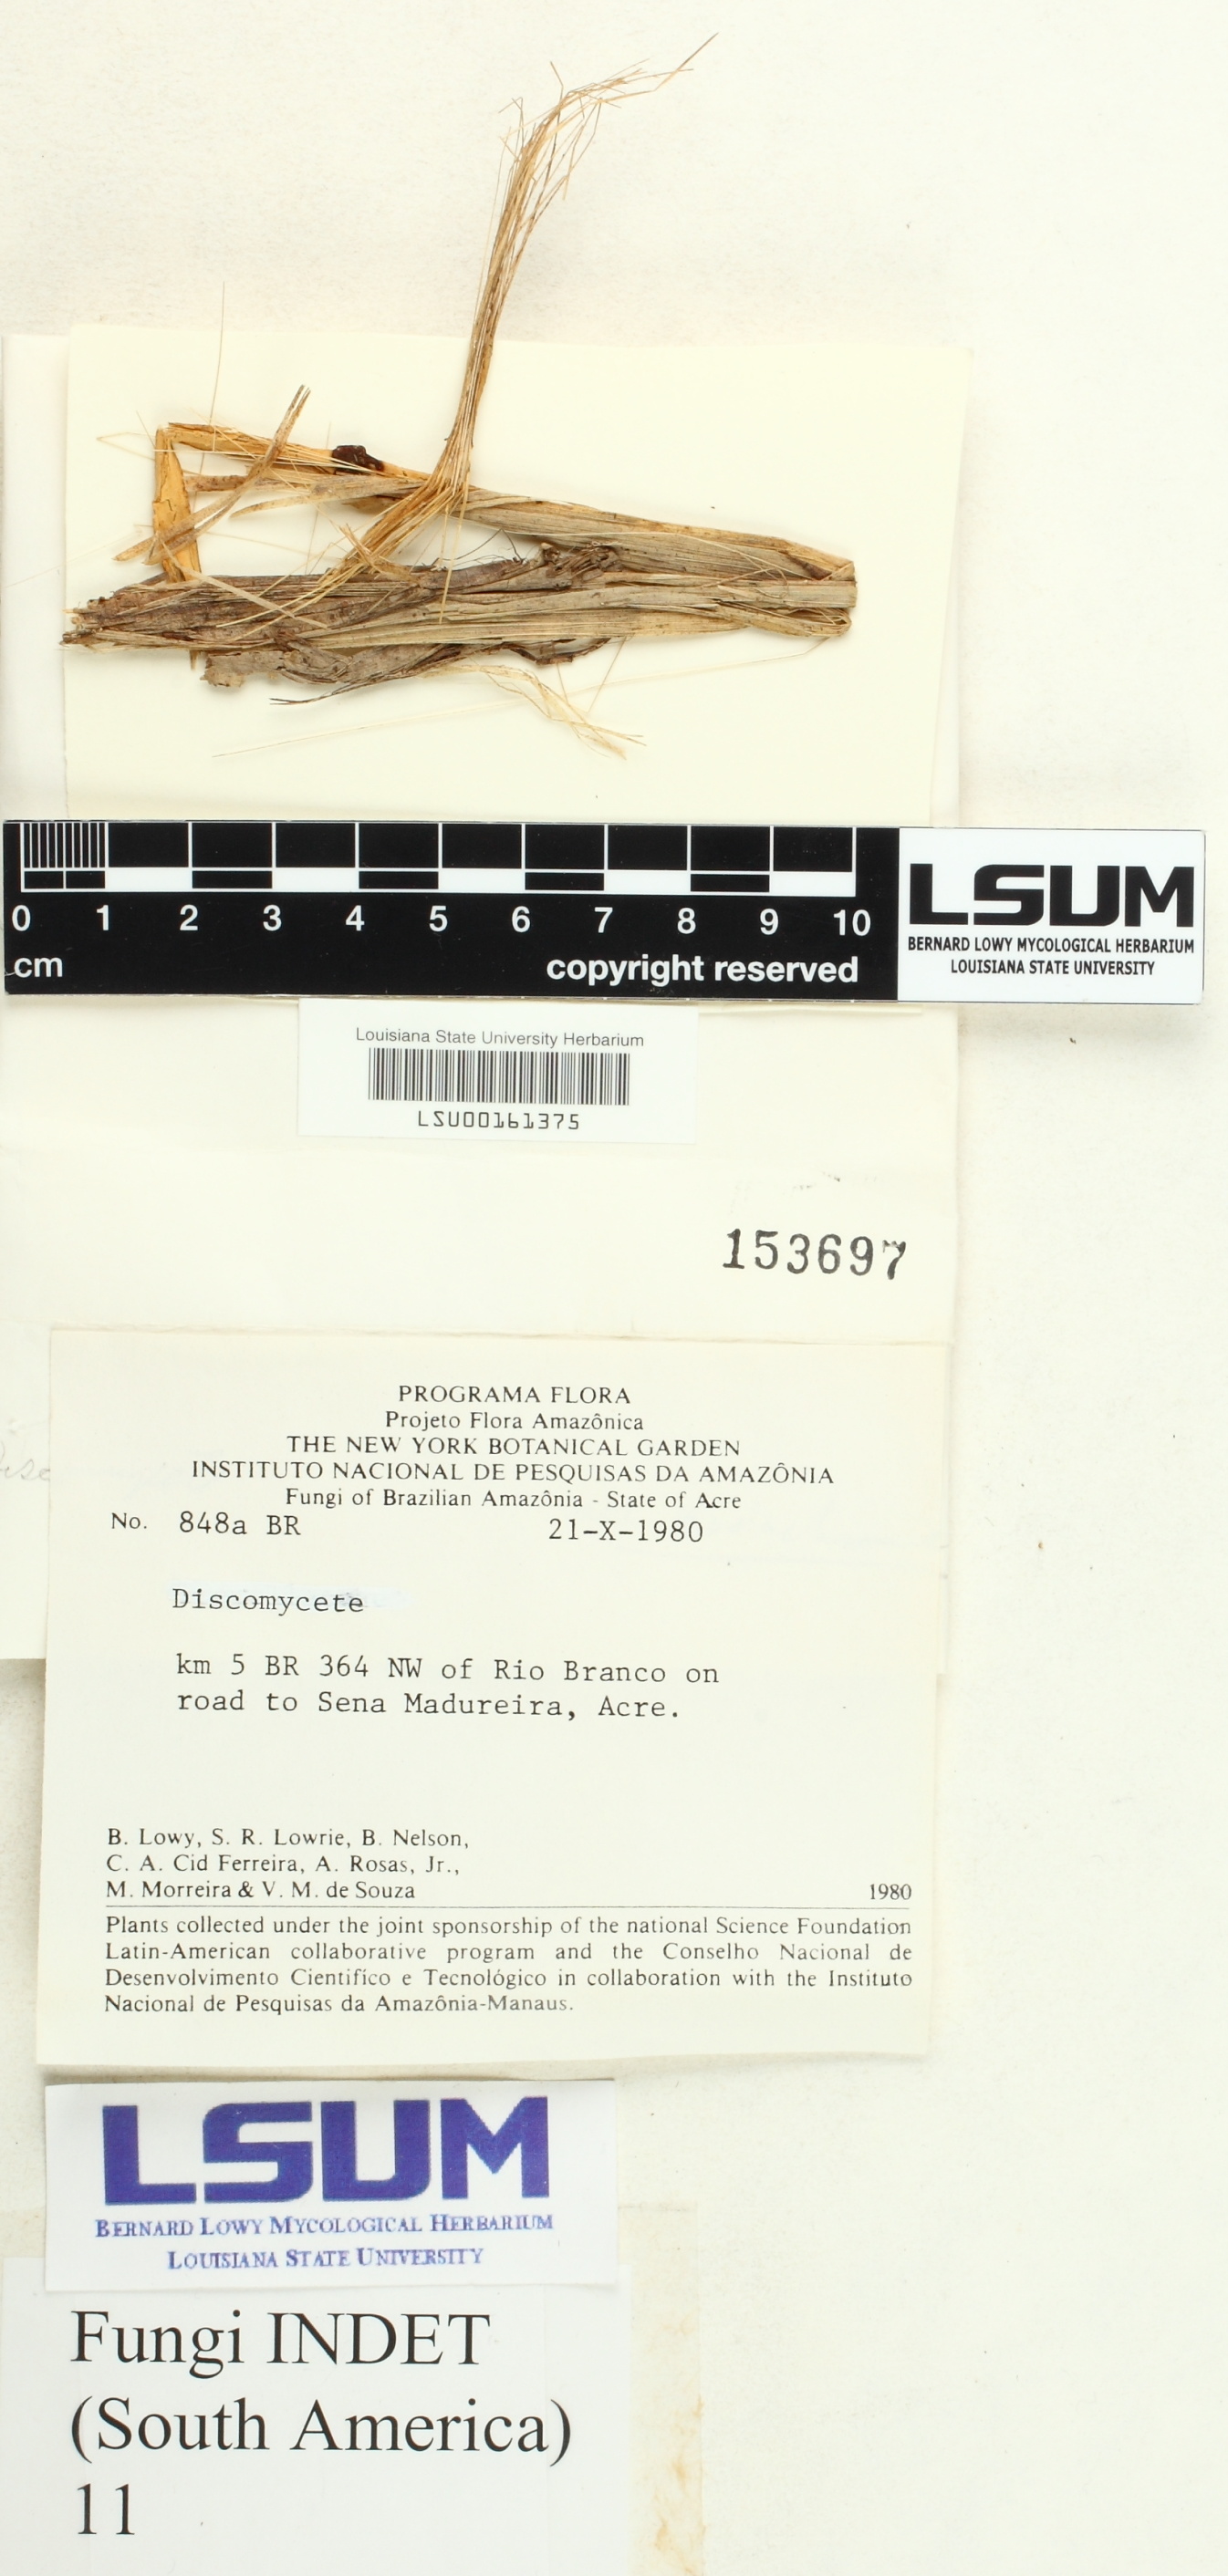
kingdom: Fungi
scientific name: Fungi
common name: Fungi
